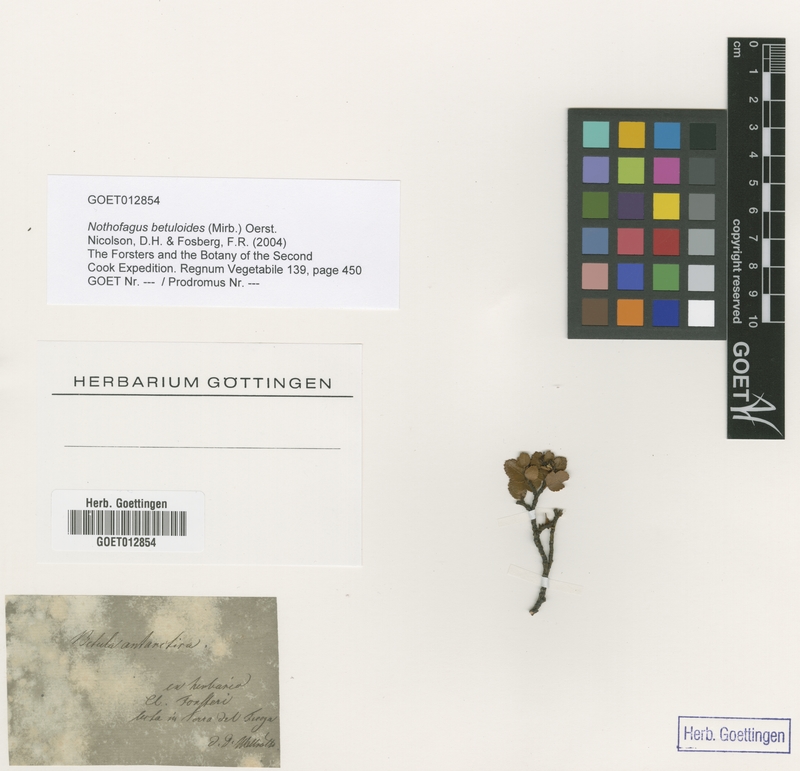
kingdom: Plantae
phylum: Tracheophyta
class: Magnoliopsida
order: Fagales
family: Nothofagaceae
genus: Nothofagus
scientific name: Nothofagus betuloides
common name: Magellan's beech
